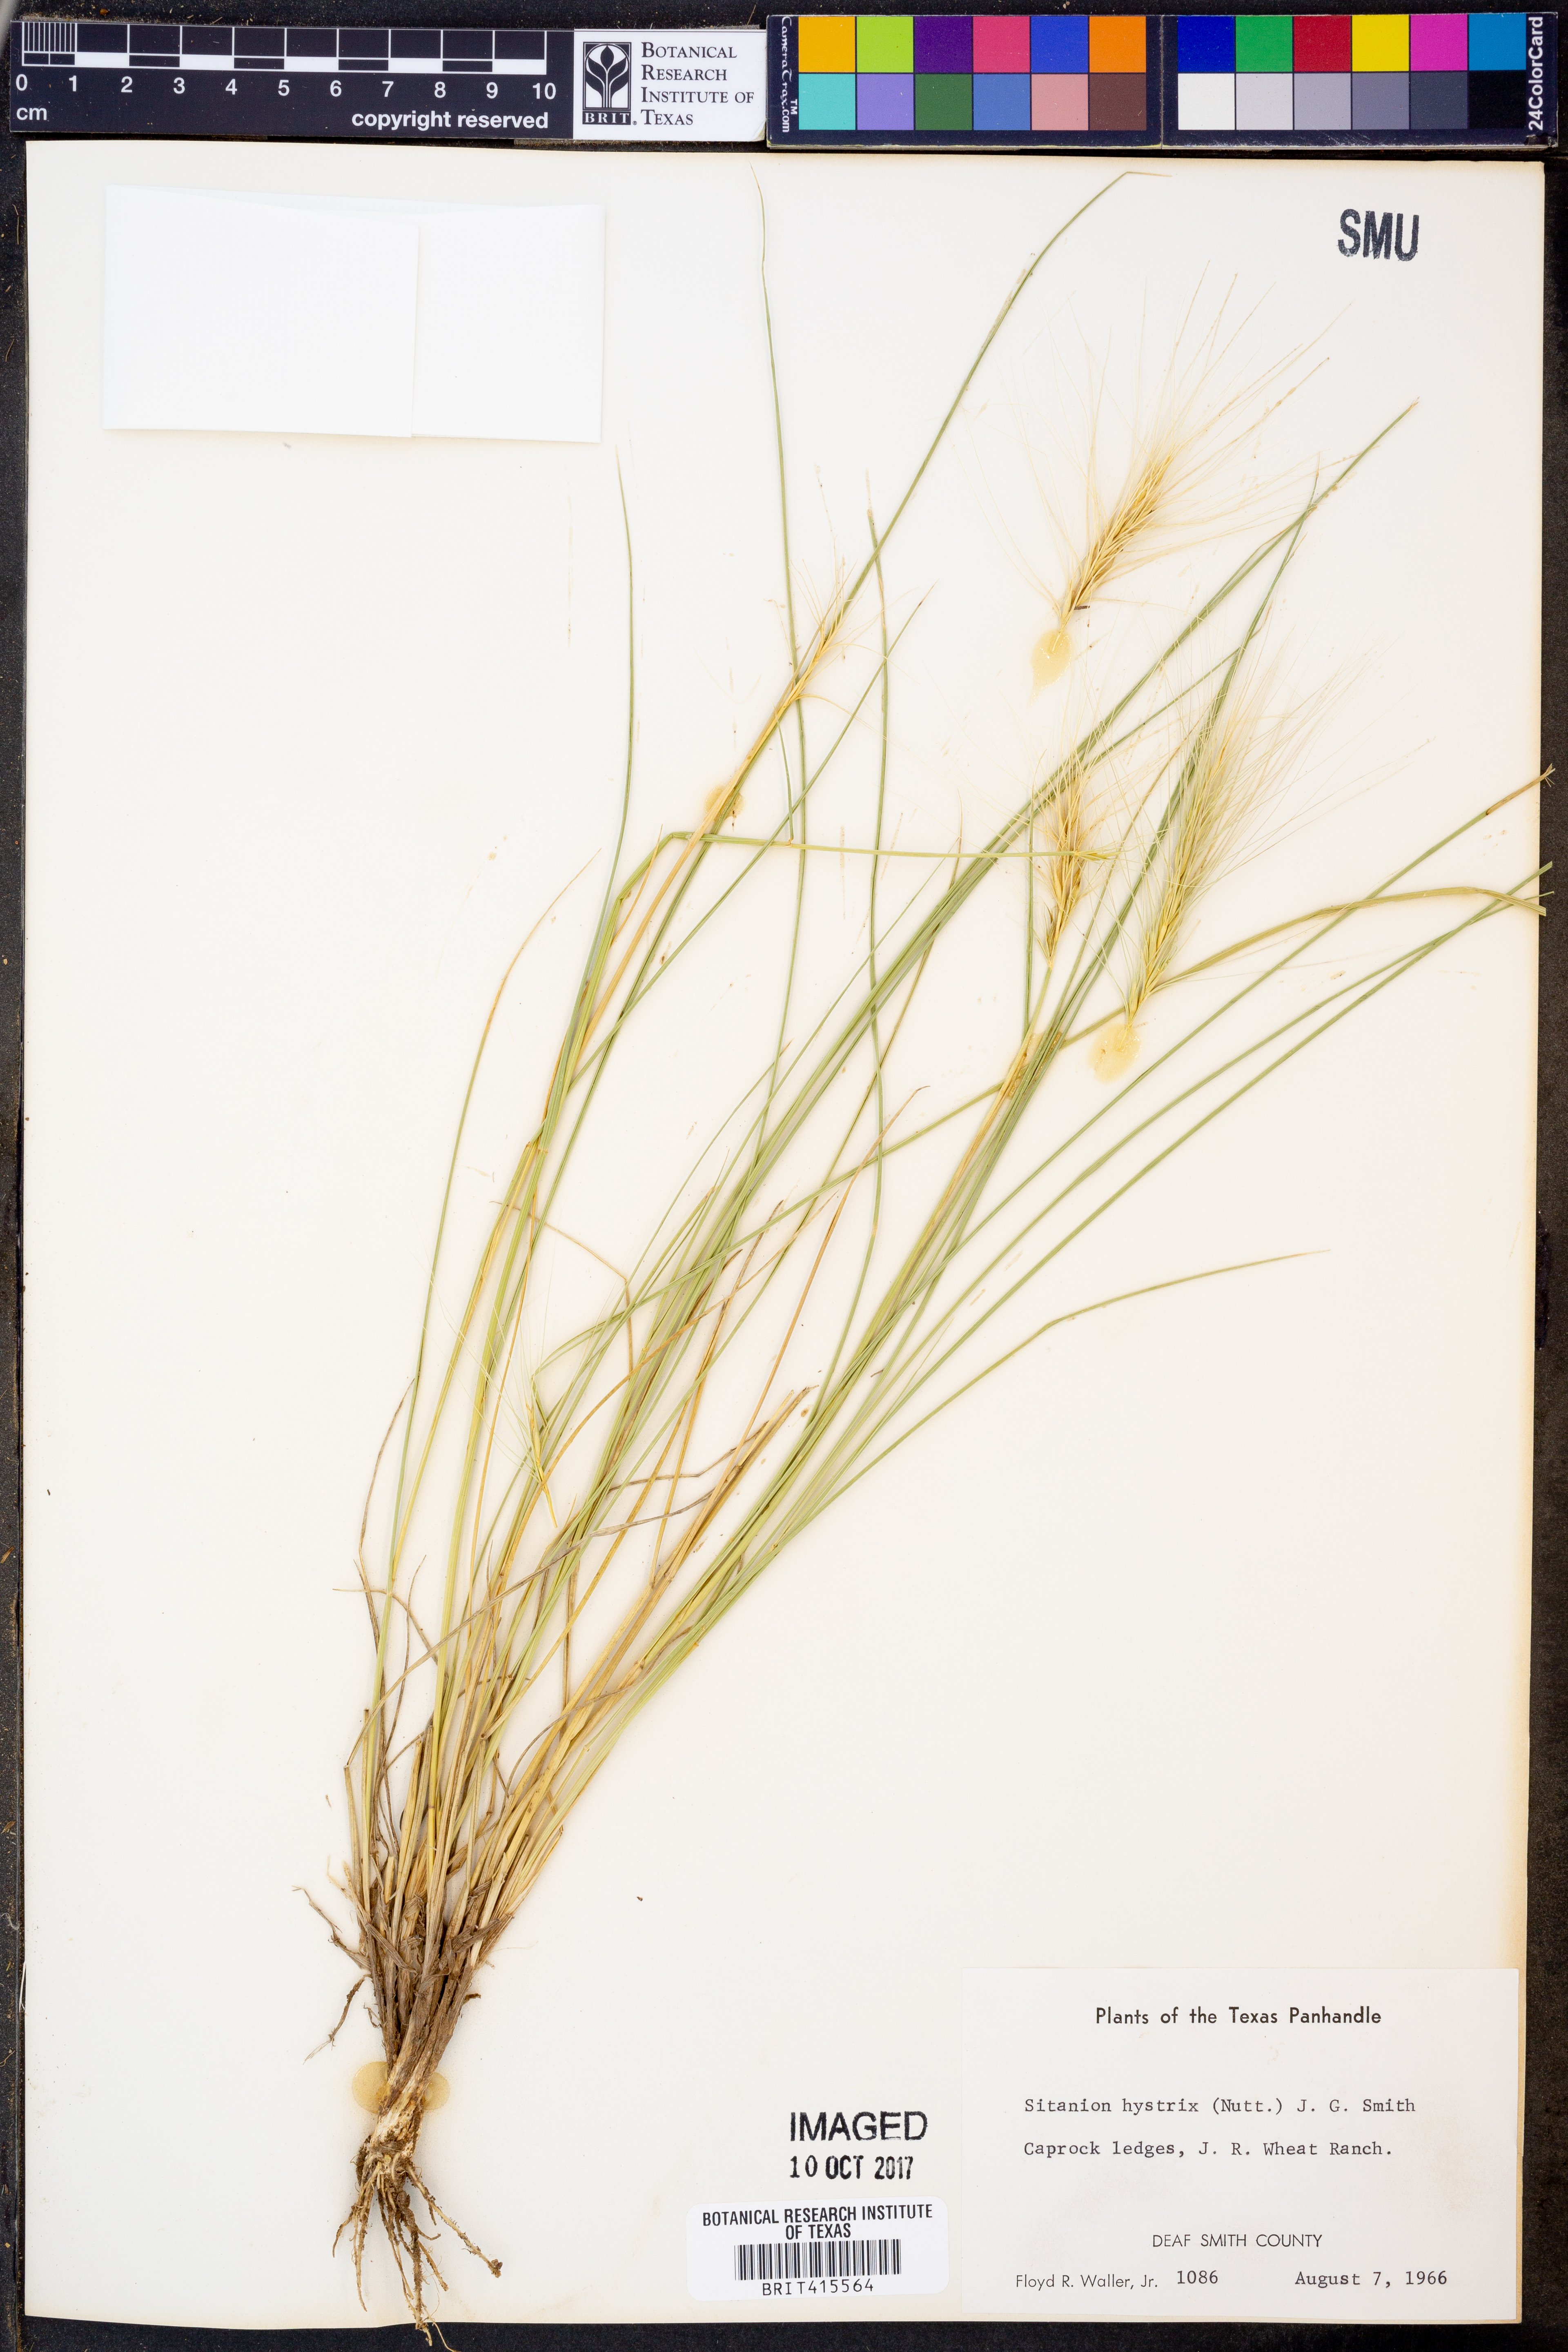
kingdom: Plantae
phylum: Tracheophyta
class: Liliopsida
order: Poales
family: Poaceae
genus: Elymus
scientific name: Elymus elymoides
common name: Bottlebrush squirreltail
